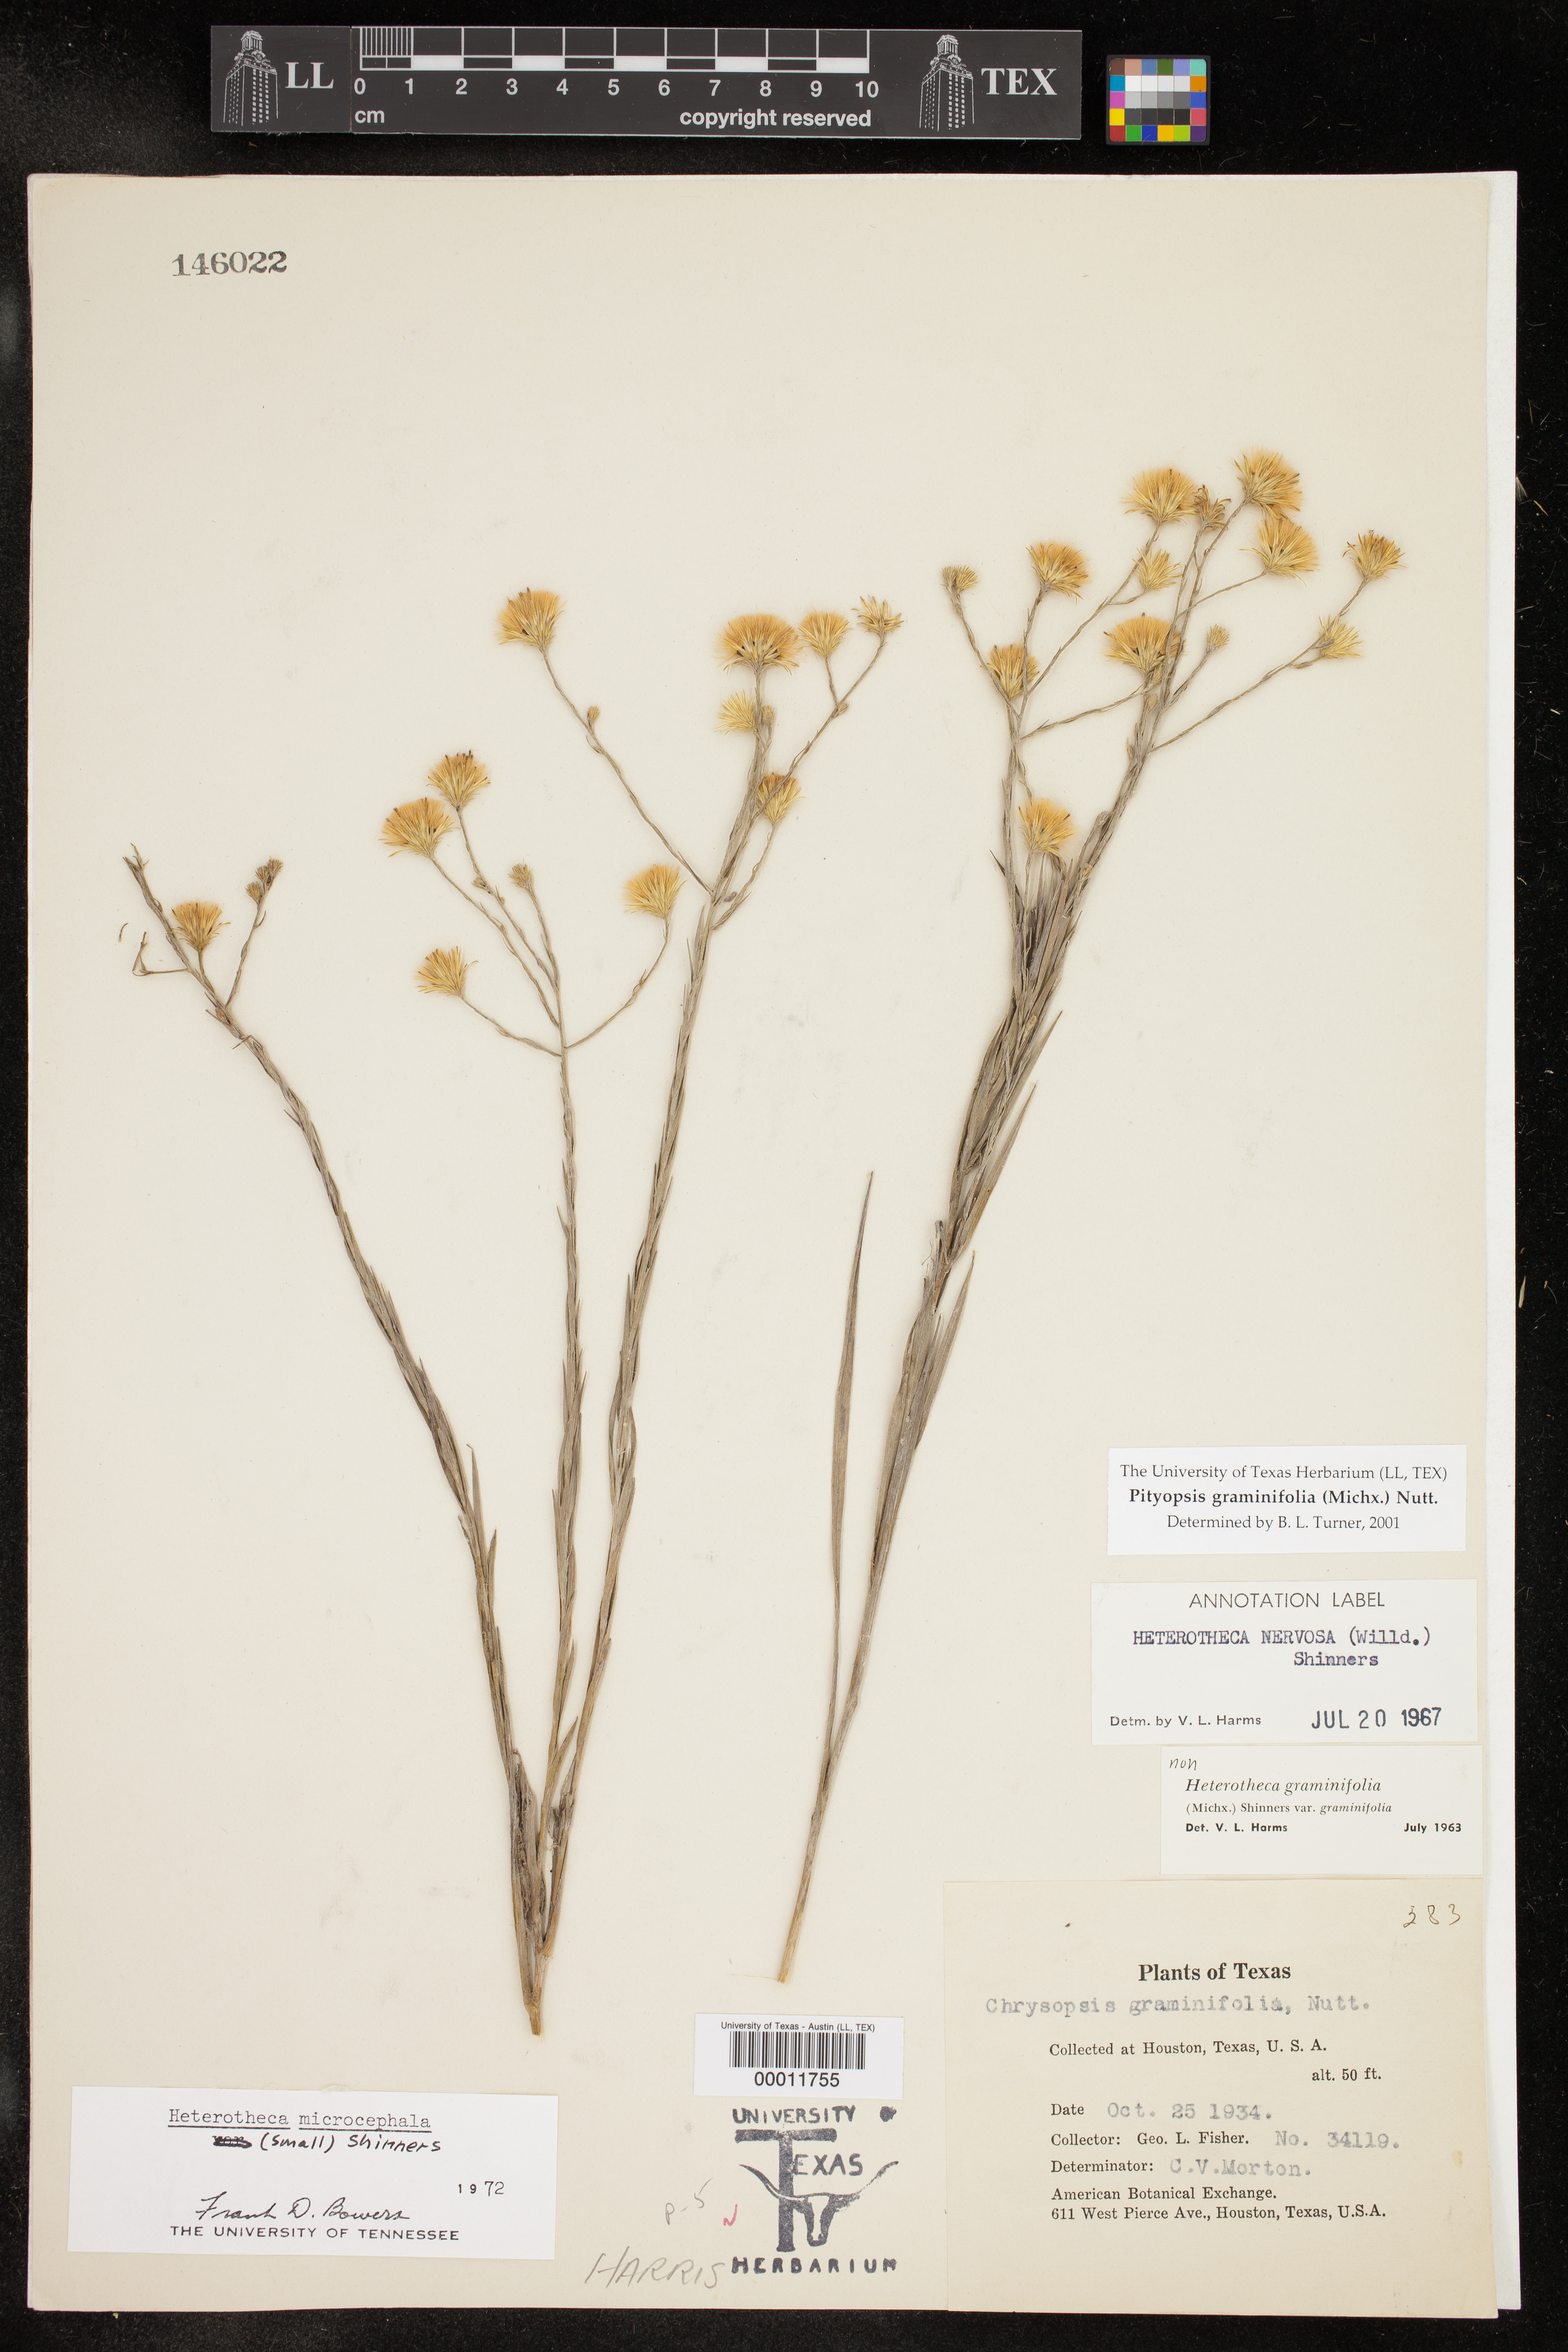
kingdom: Plantae
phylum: Tracheophyta
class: Magnoliopsida
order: Asterales
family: Asteraceae
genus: Pityopsis
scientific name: Pityopsis graminifolia
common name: Grass-leaf golden-aster
